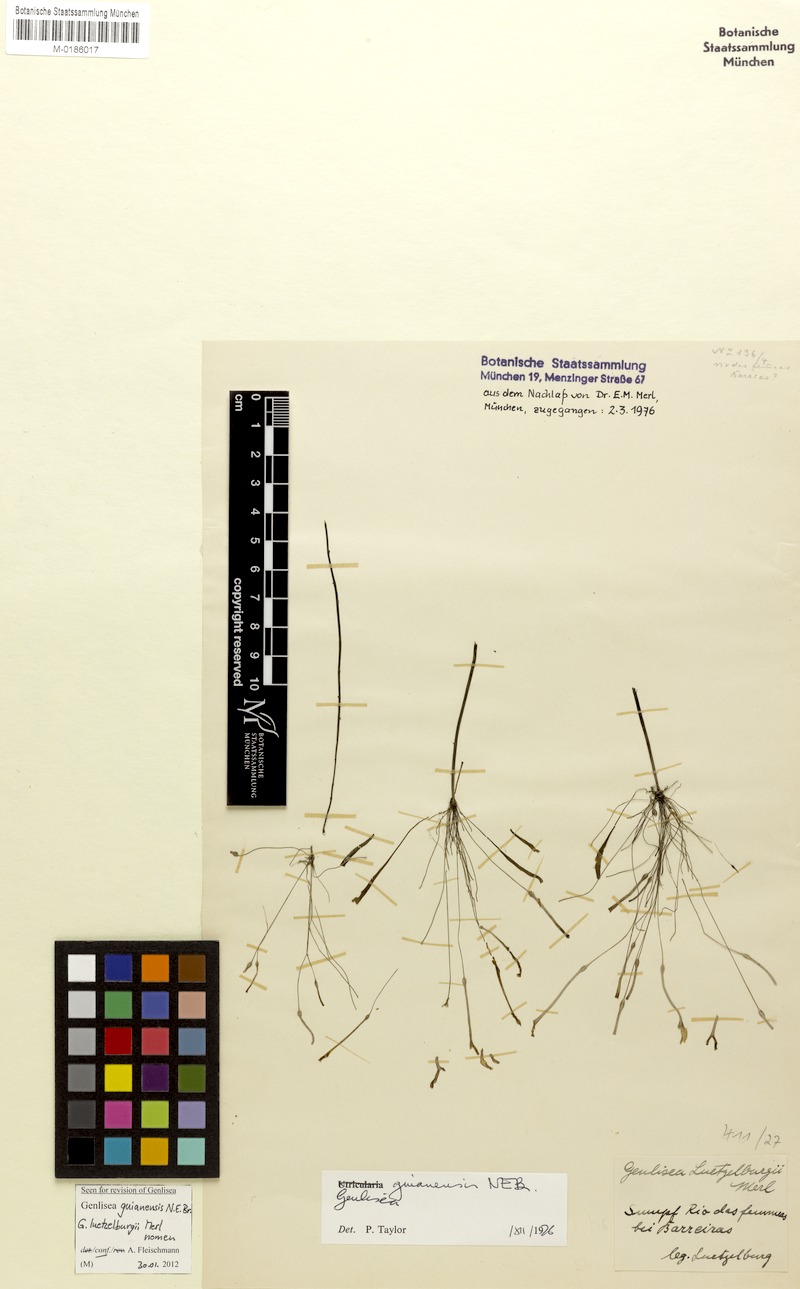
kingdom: Plantae
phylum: Tracheophyta
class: Magnoliopsida
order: Lamiales
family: Lentibulariaceae
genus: Genlisea
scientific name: Genlisea guianensis
